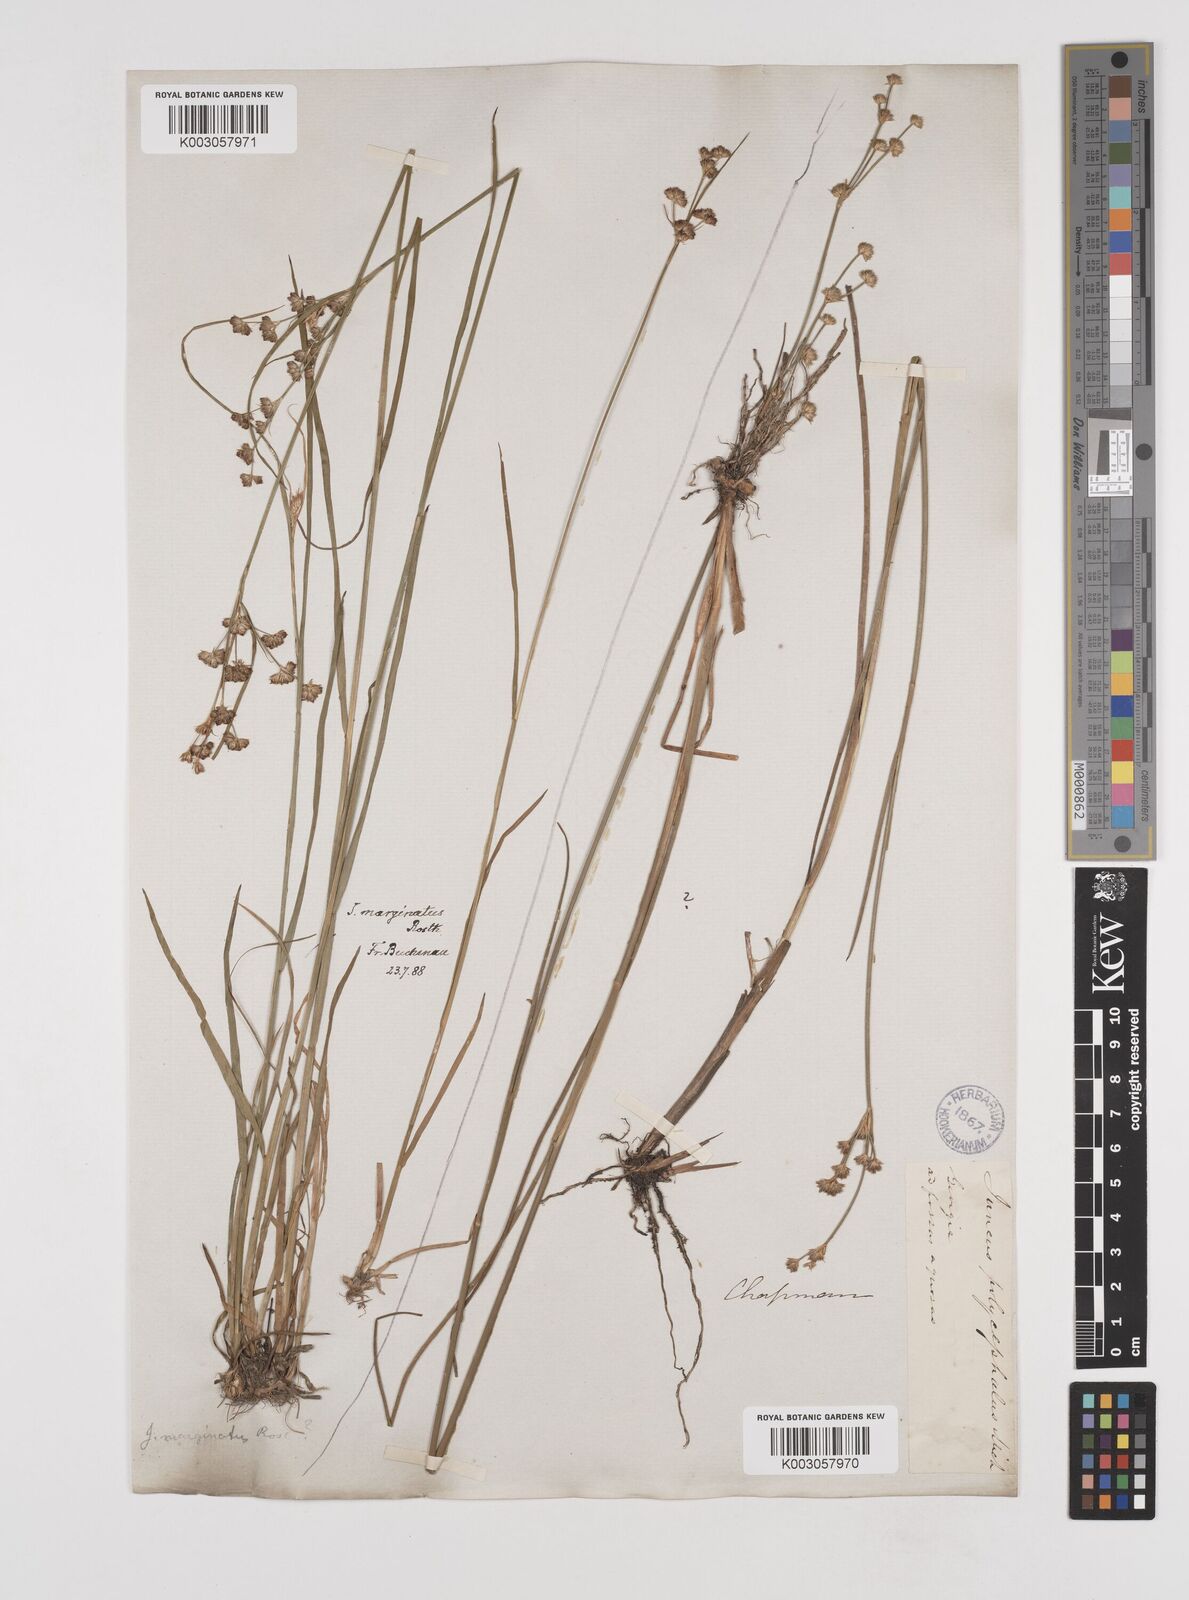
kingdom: Plantae
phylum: Tracheophyta
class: Liliopsida
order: Poales
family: Juncaceae
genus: Juncus
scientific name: Juncus marginatus
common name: Grass-leaf rush
